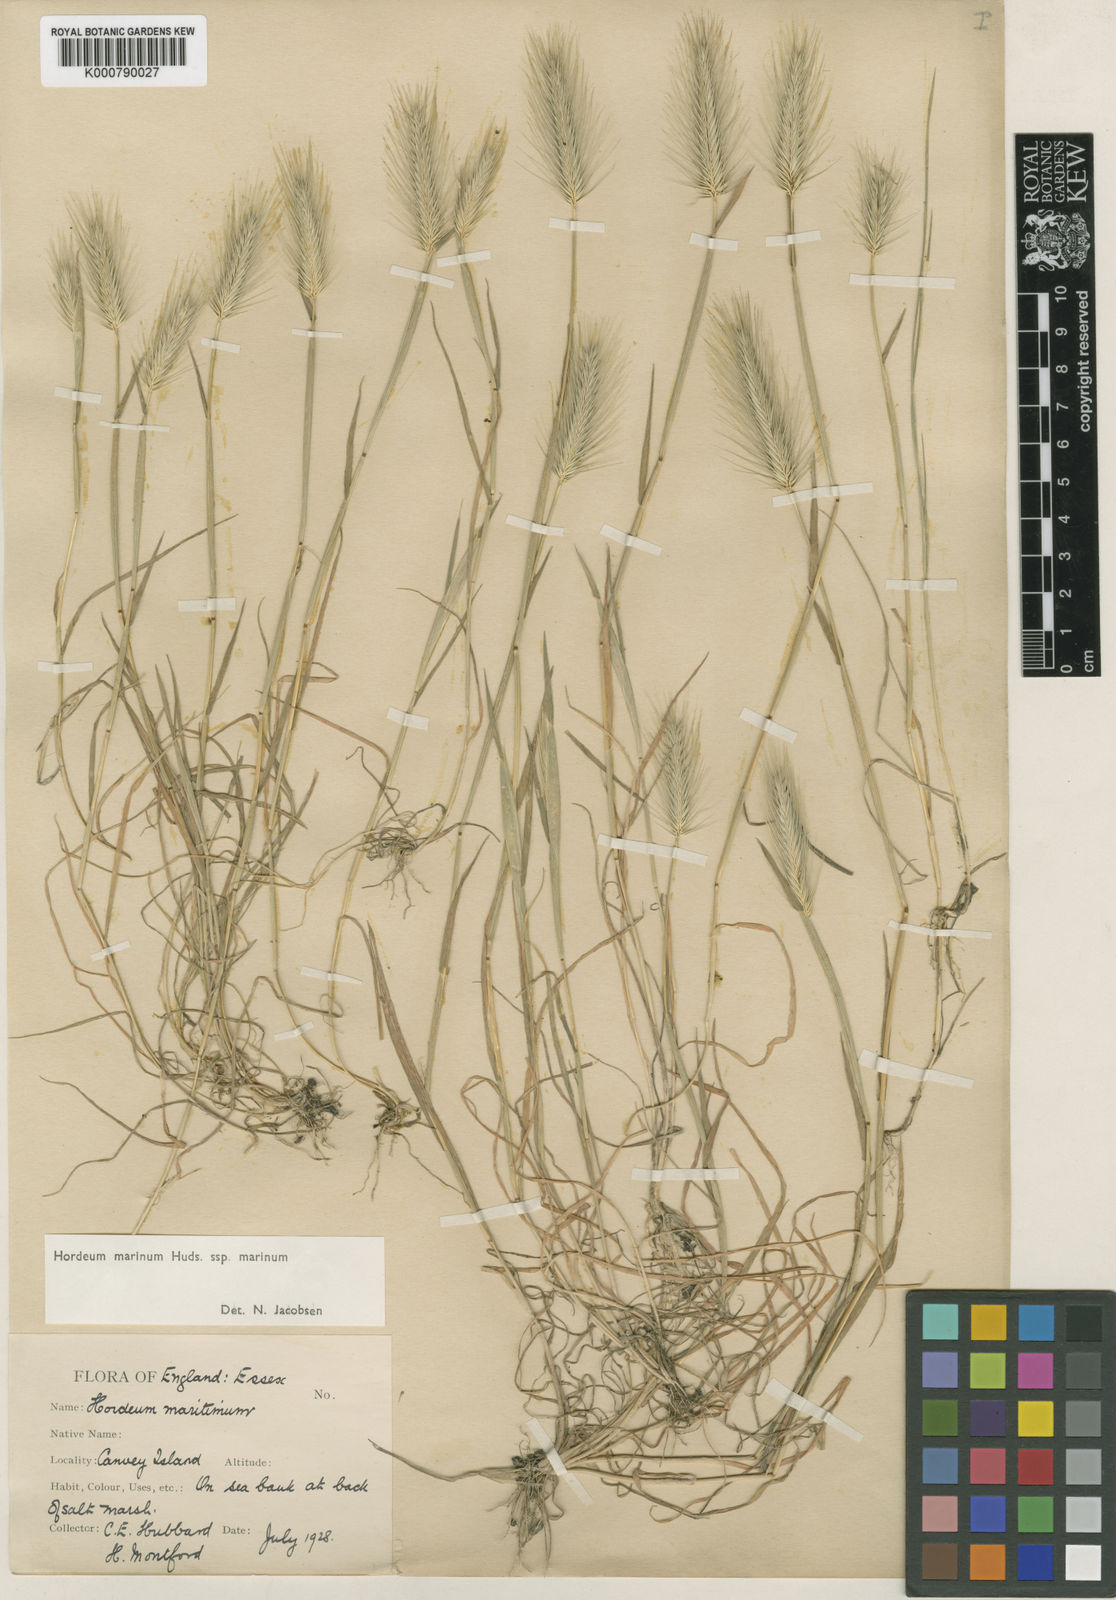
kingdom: Plantae
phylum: Tracheophyta
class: Liliopsida
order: Poales
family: Poaceae
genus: Hordeum
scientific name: Hordeum marinum
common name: Sea barley
